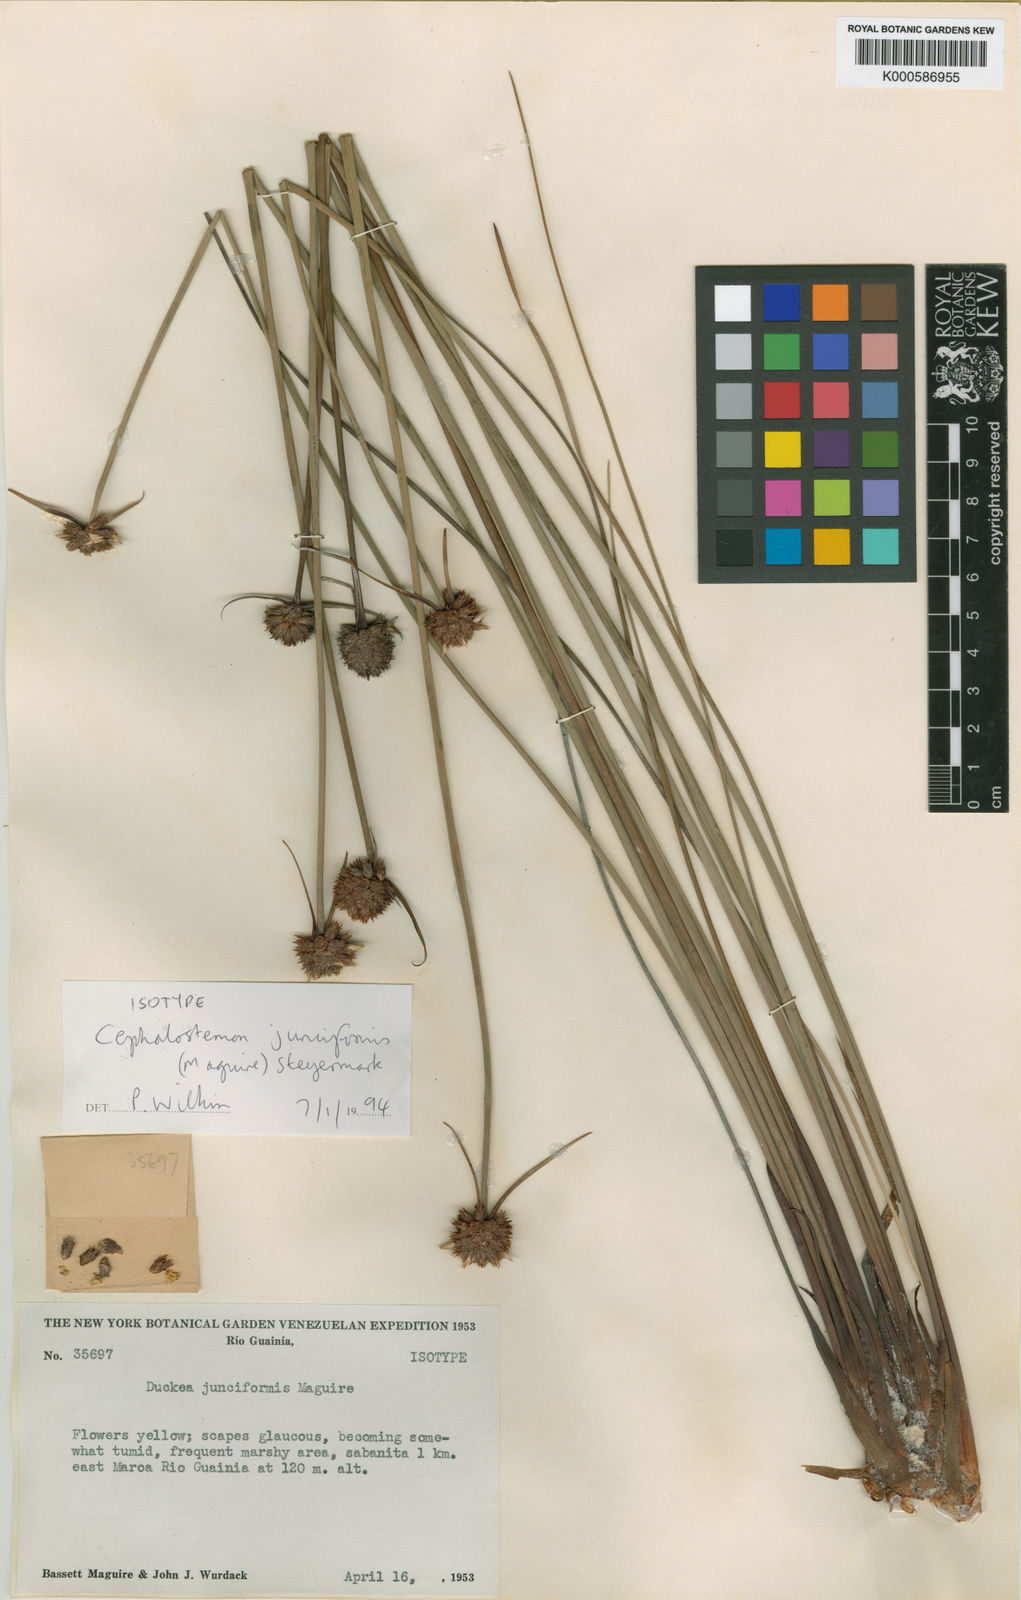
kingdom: Plantae
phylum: Tracheophyta
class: Liliopsida
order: Poales
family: Rapateaceae
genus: Duckea
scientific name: Duckea junciformis
